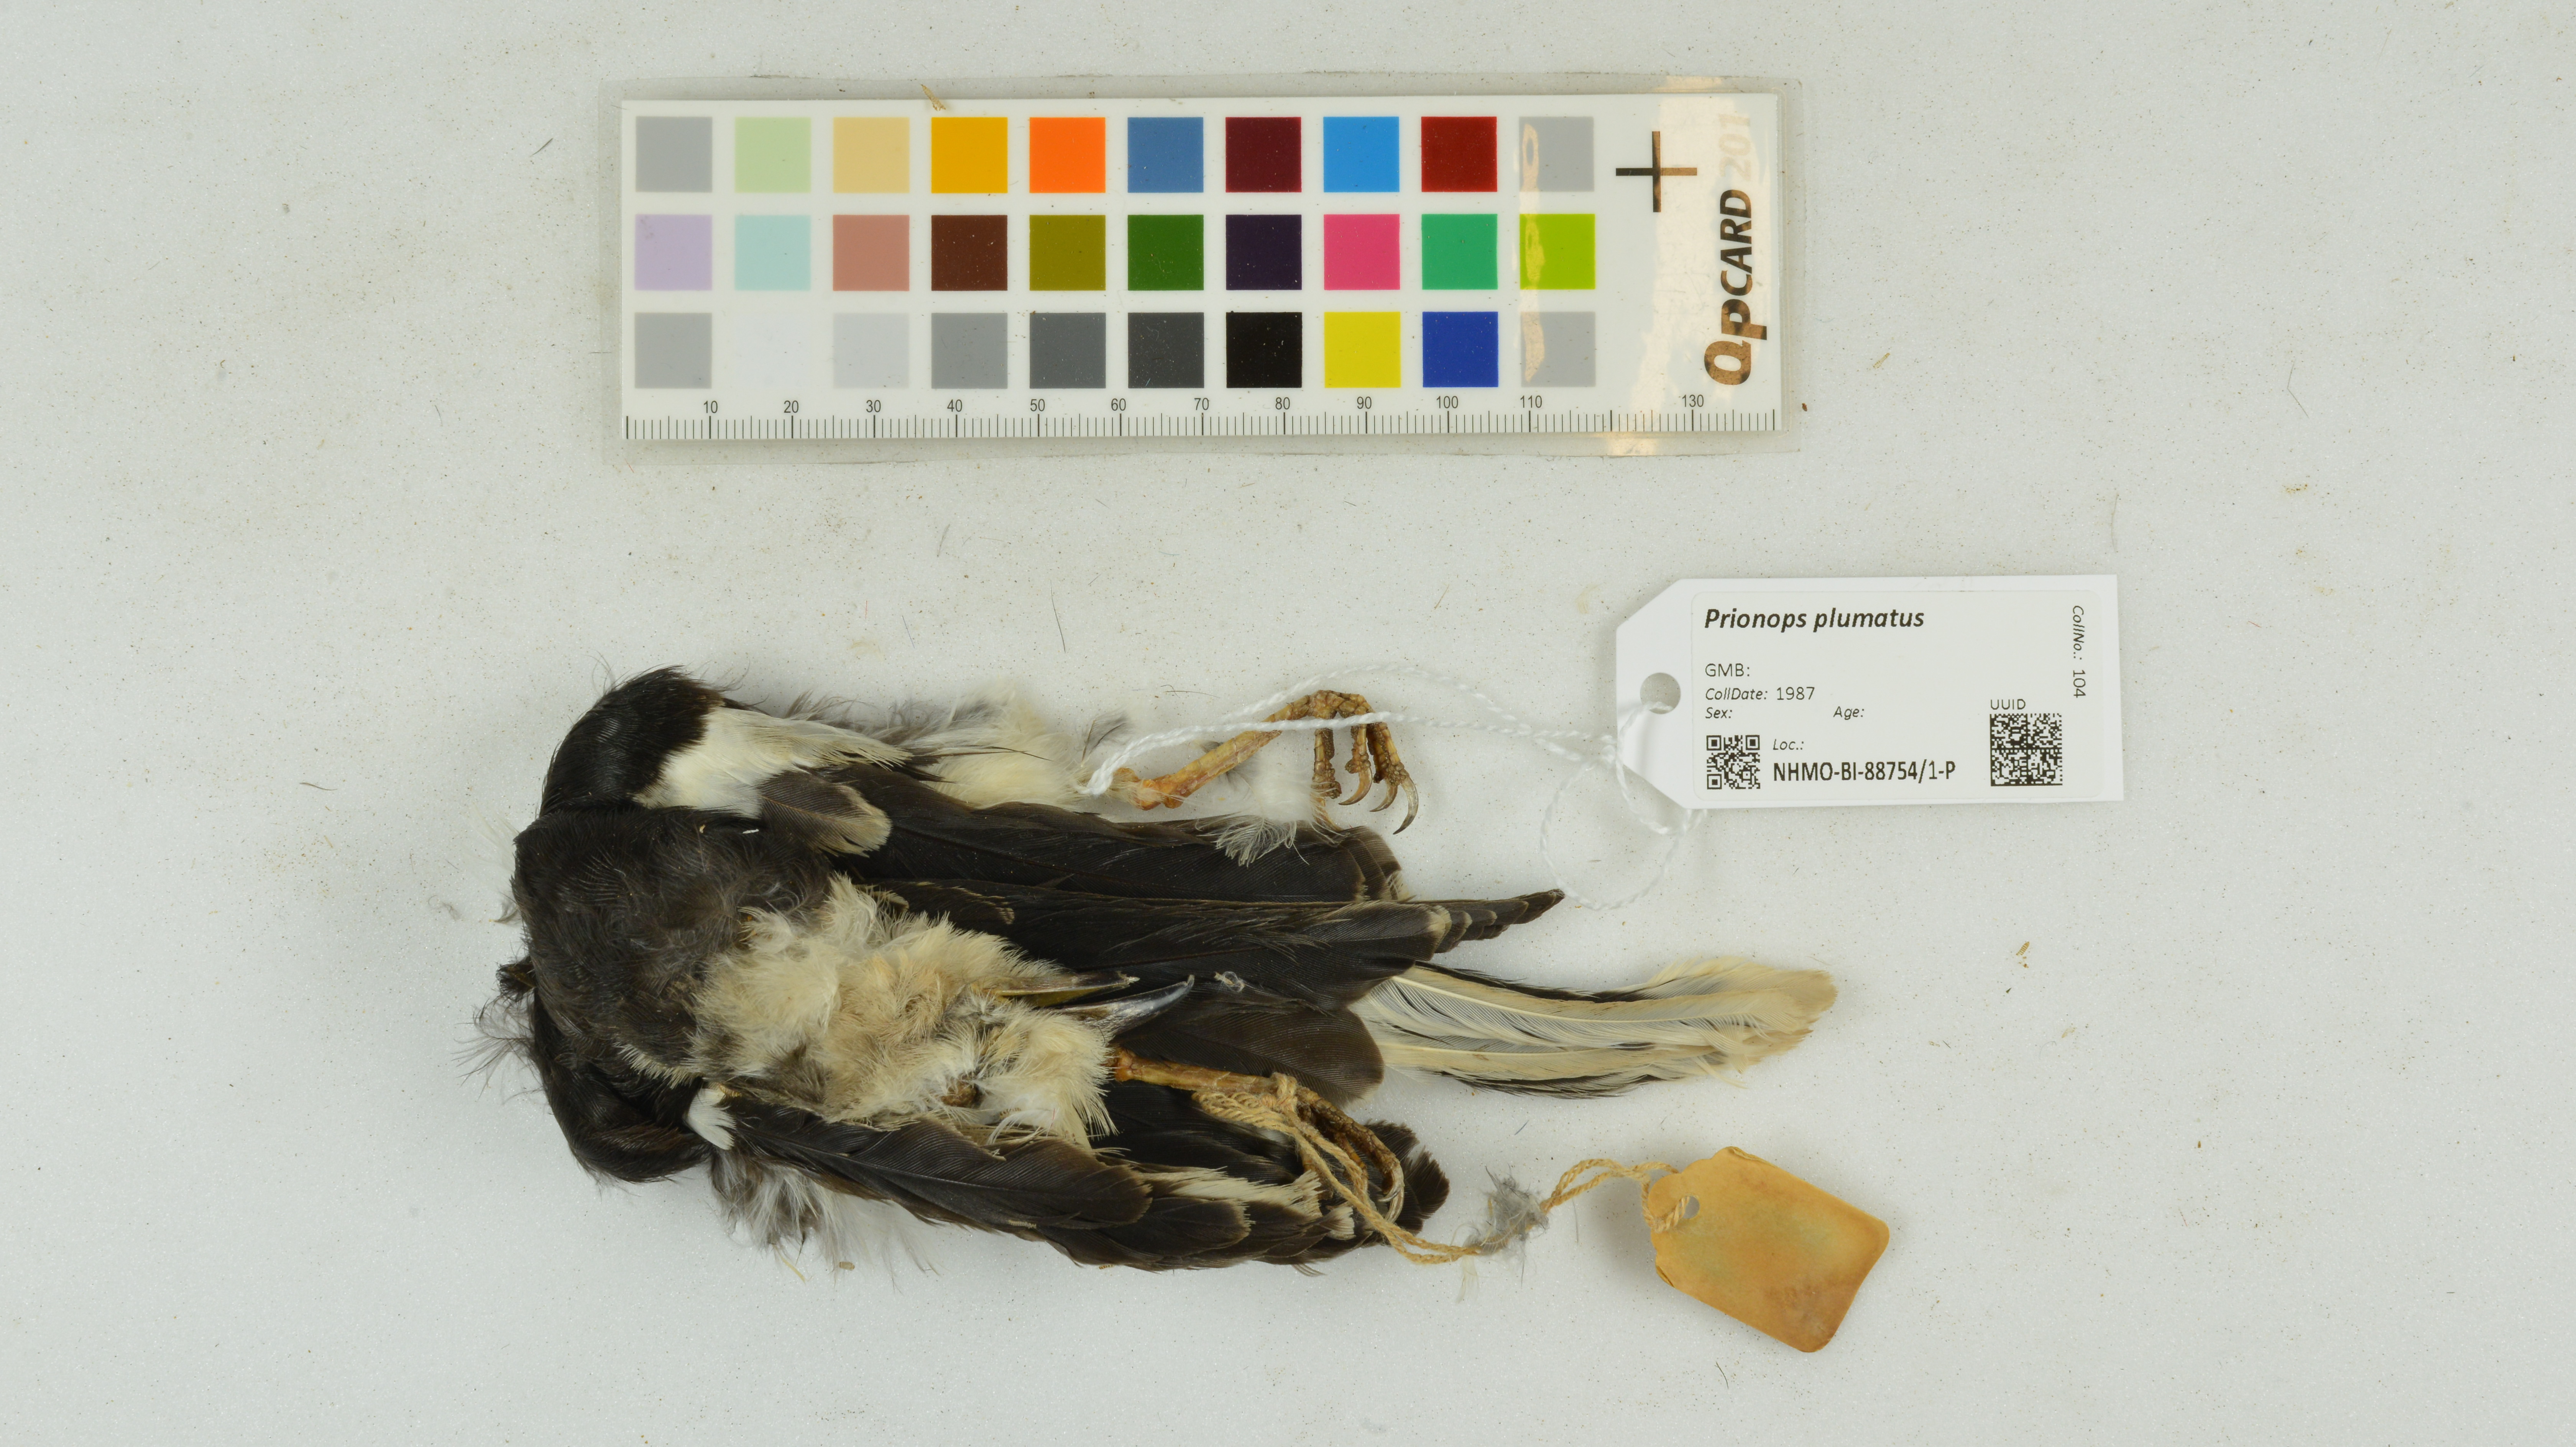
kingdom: Animalia
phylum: Chordata
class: Aves
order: Passeriformes
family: Prionopidae
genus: Prionops
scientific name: Prionops plumatus
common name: White-crested helmetshrike
